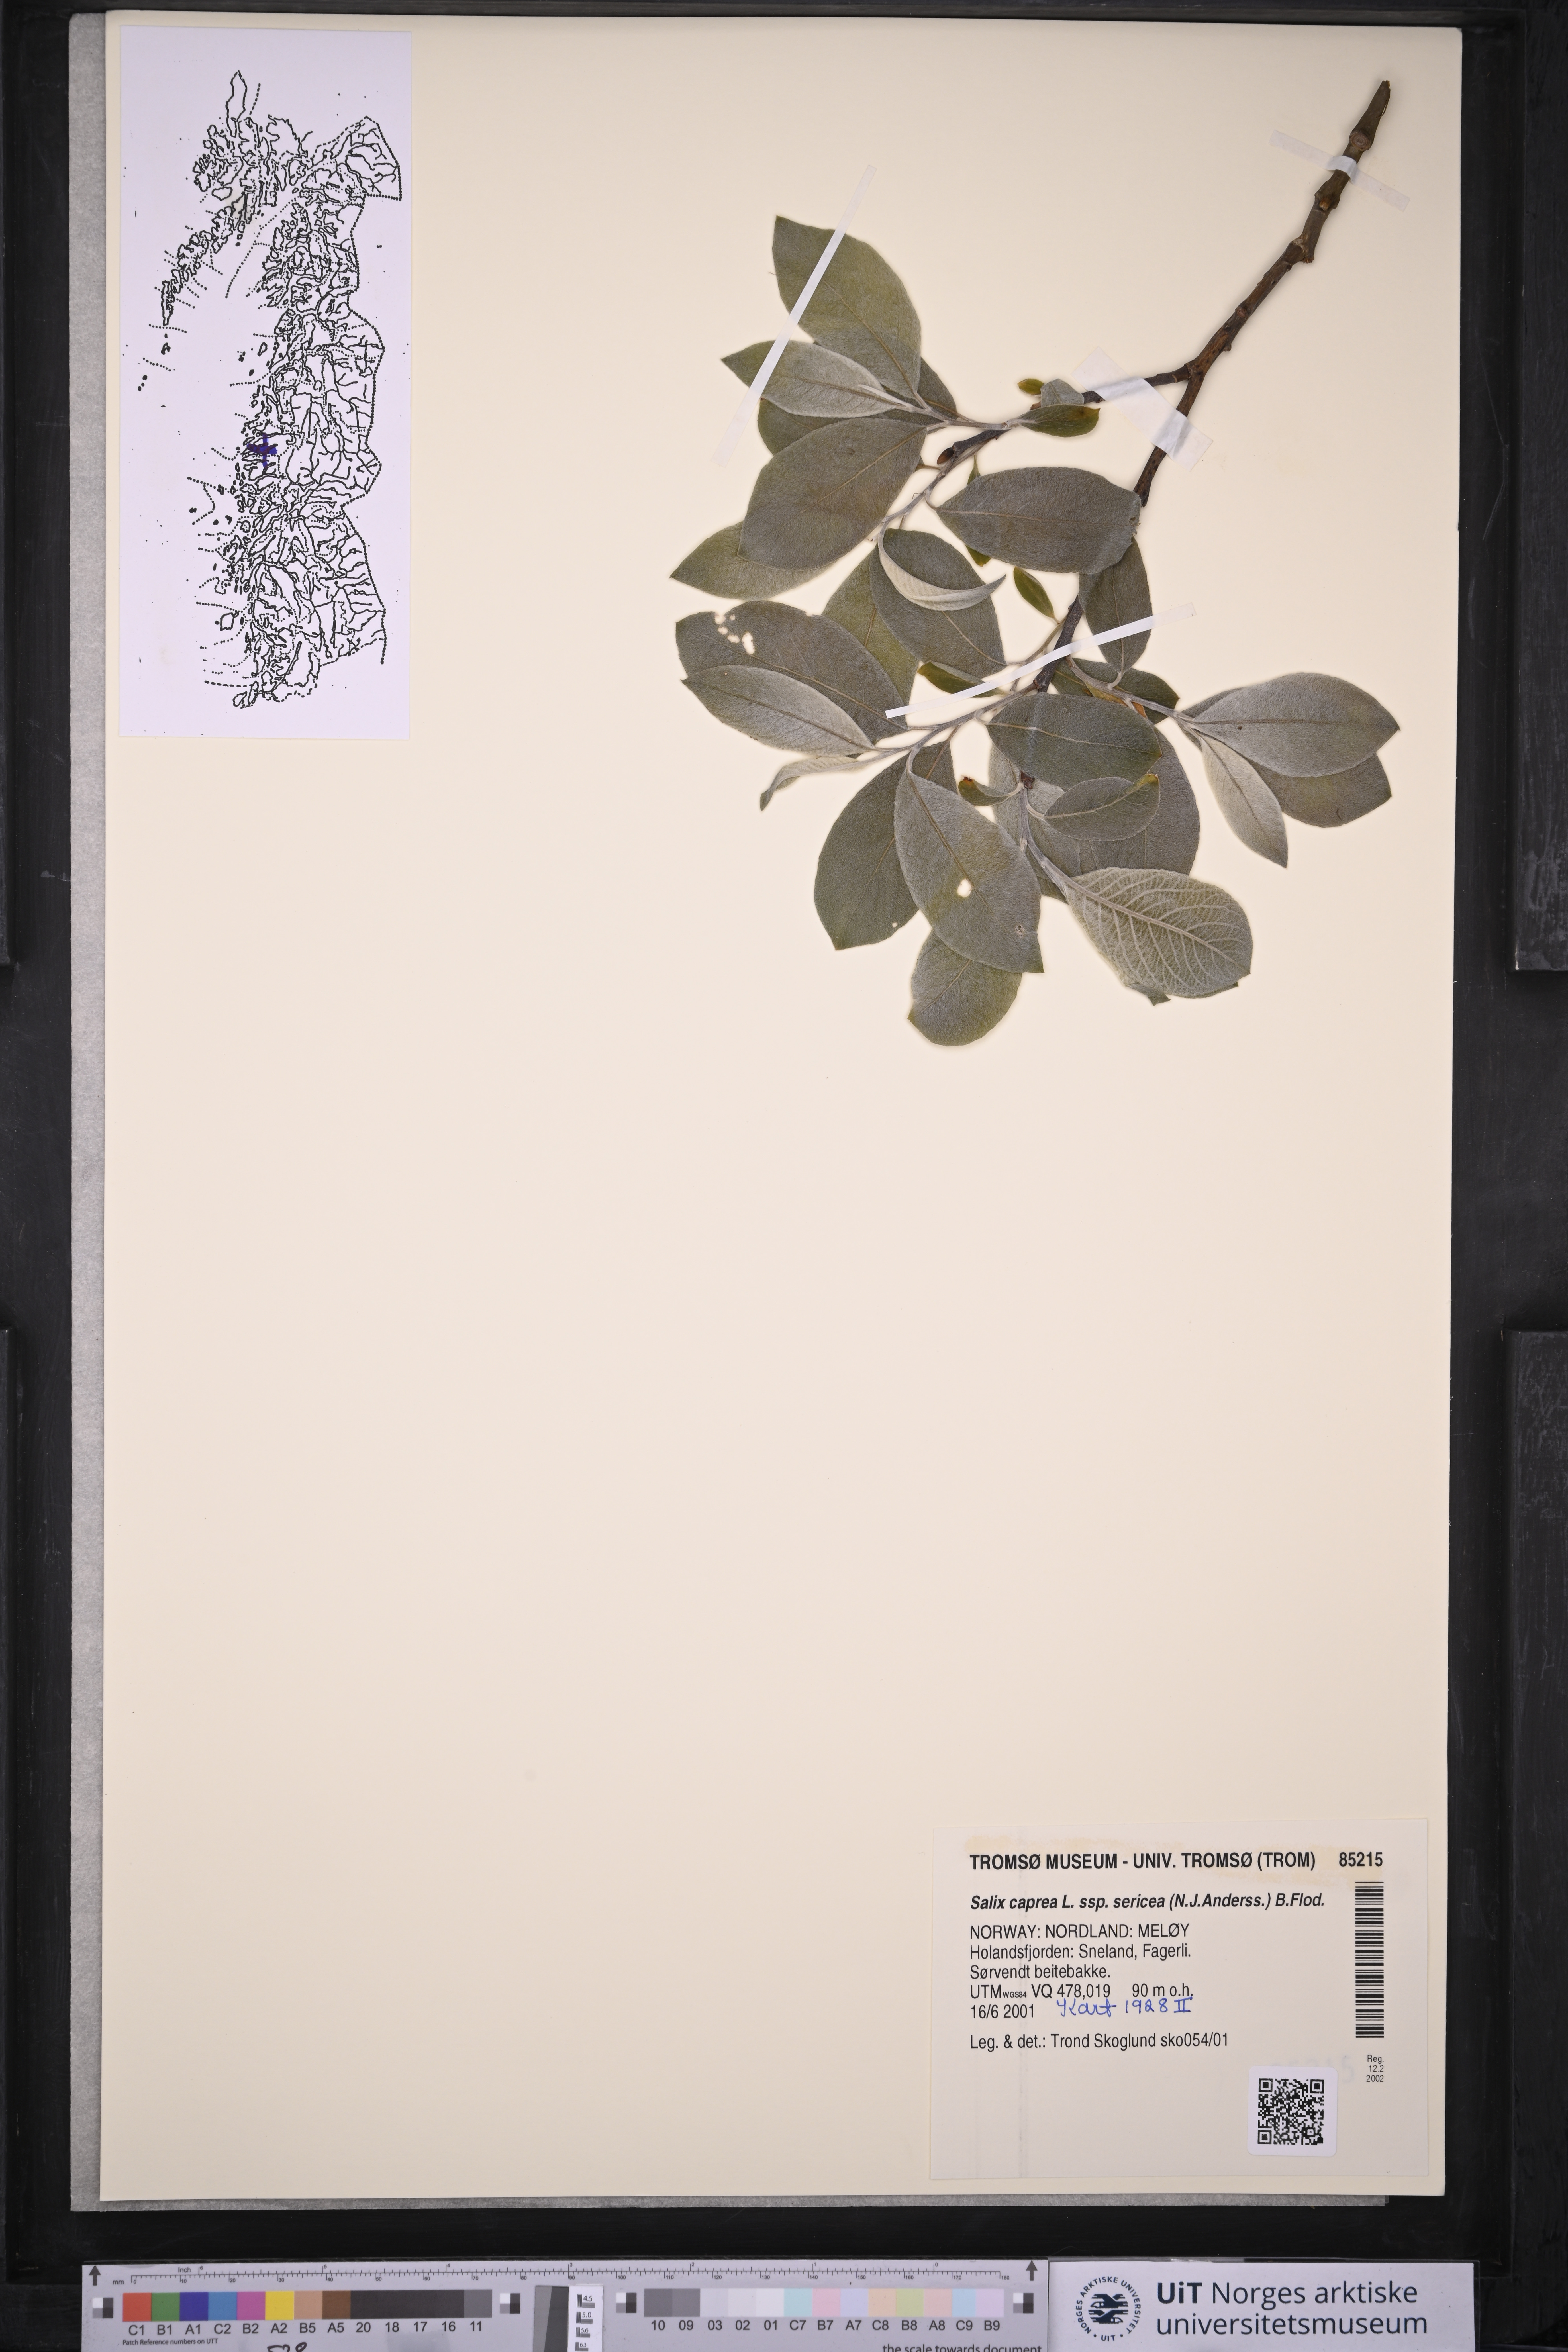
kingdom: Plantae
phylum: Tracheophyta
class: Magnoliopsida
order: Malpighiales
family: Salicaceae
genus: Salix
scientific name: Salix caprea
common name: Goat willow
